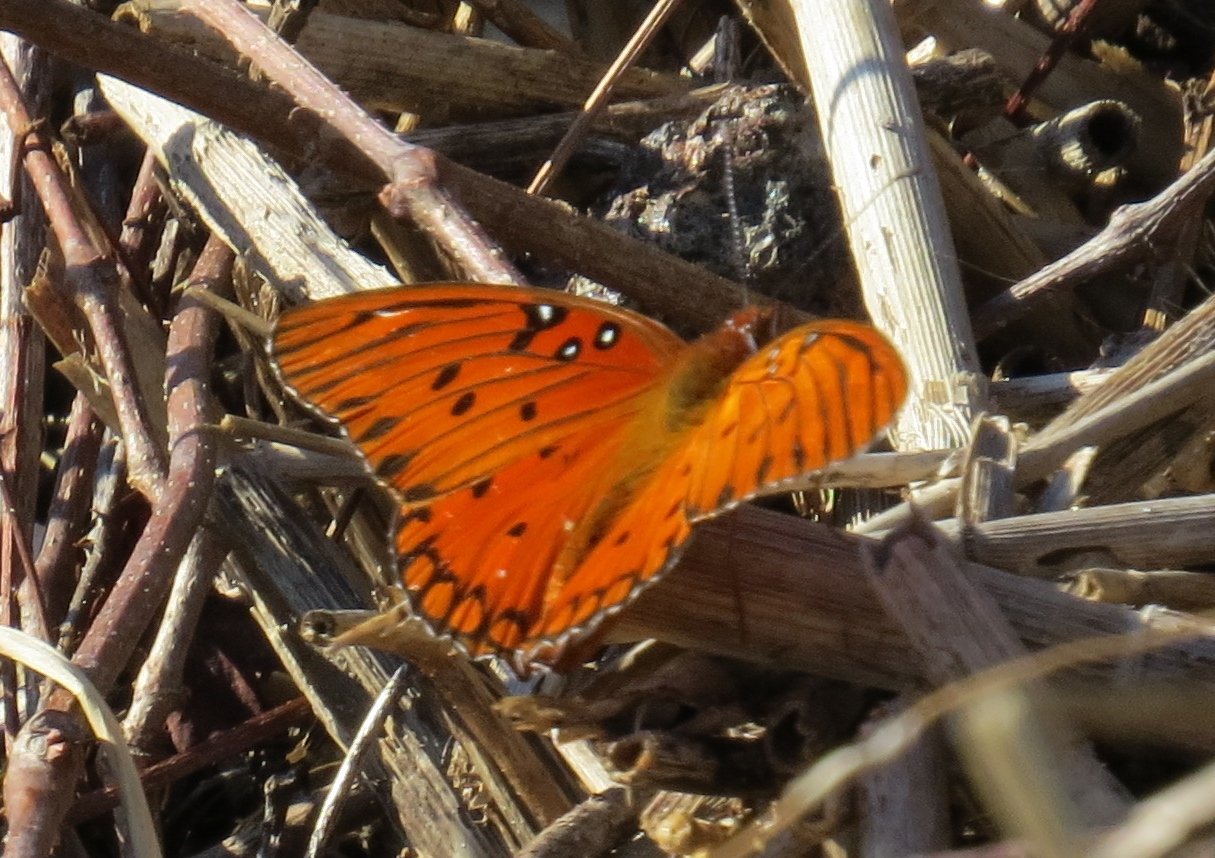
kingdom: Animalia
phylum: Arthropoda
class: Insecta
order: Lepidoptera
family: Nymphalidae
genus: Dione
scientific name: Dione vanillae
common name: Gulf Fritillary
